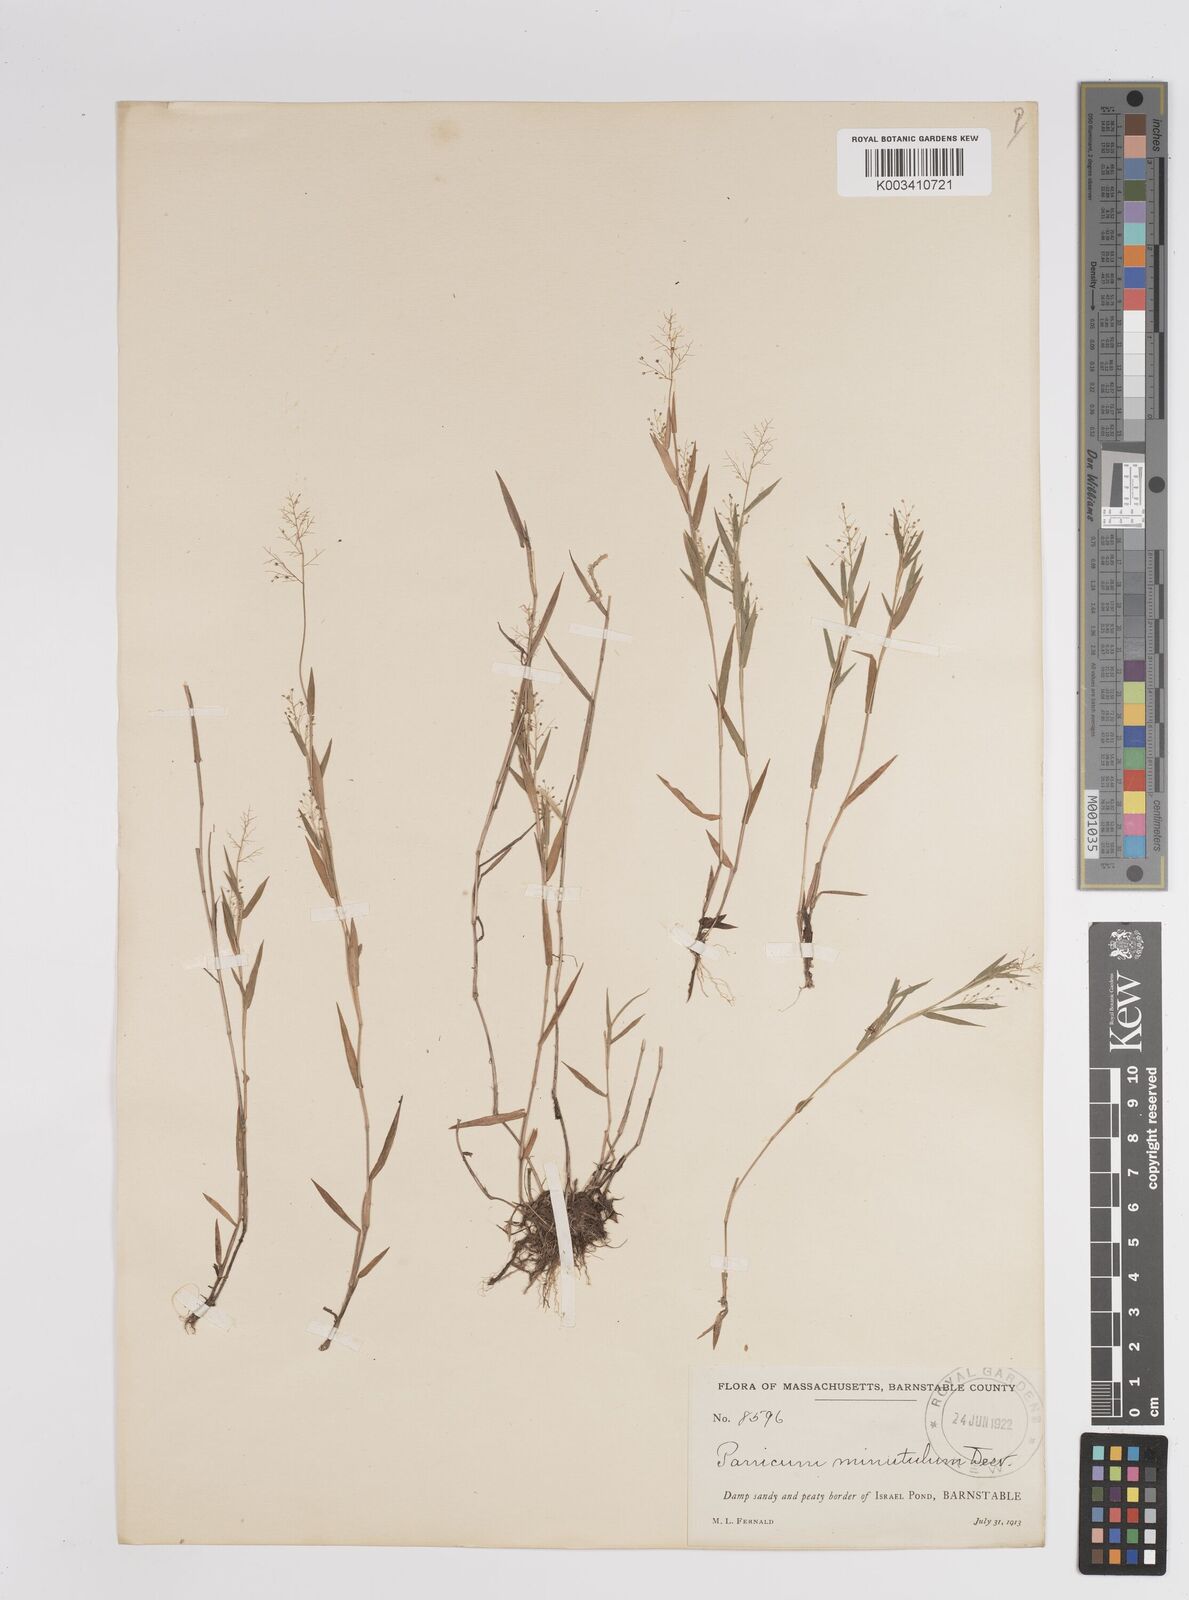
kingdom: Plantae
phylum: Tracheophyta
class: Liliopsida
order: Poales
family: Poaceae
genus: Dichanthelium
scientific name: Dichanthelium wrightianum
